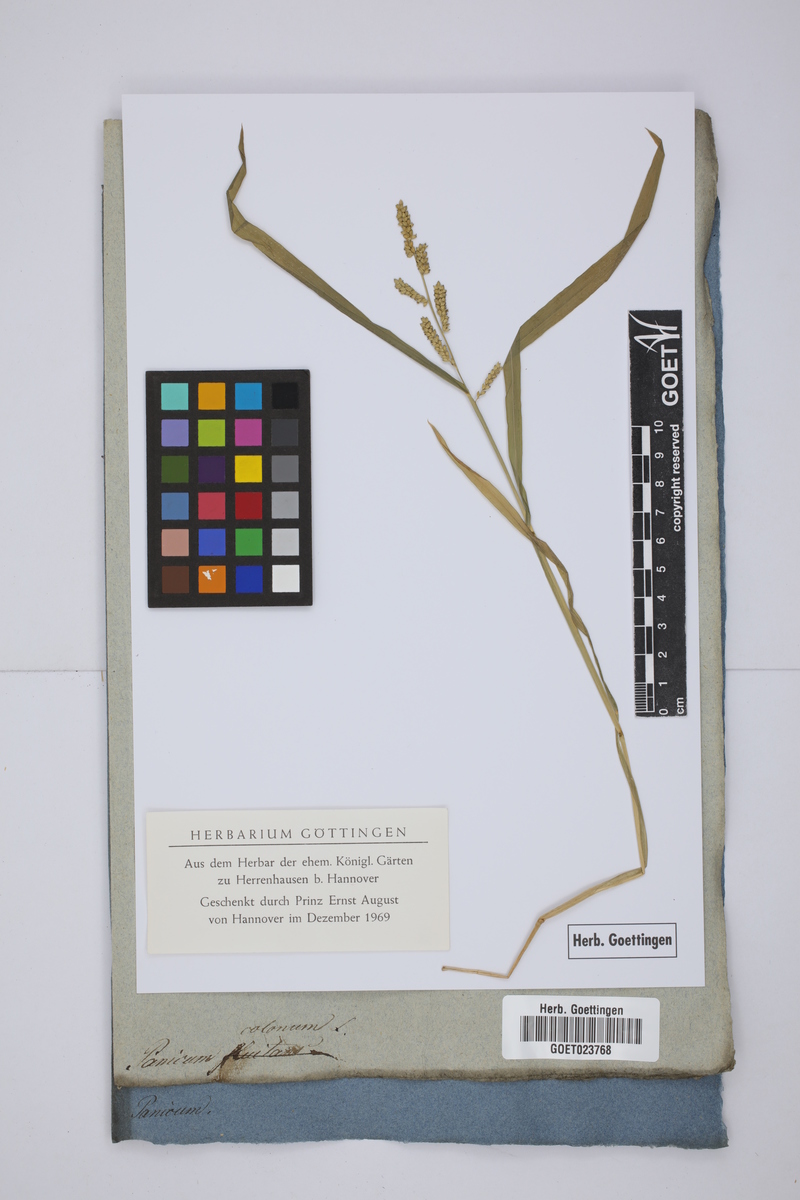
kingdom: Plantae
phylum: Tracheophyta
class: Liliopsida
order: Poales
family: Poaceae
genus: Echinochloa
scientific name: Echinochloa colonum
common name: Jungle rice
